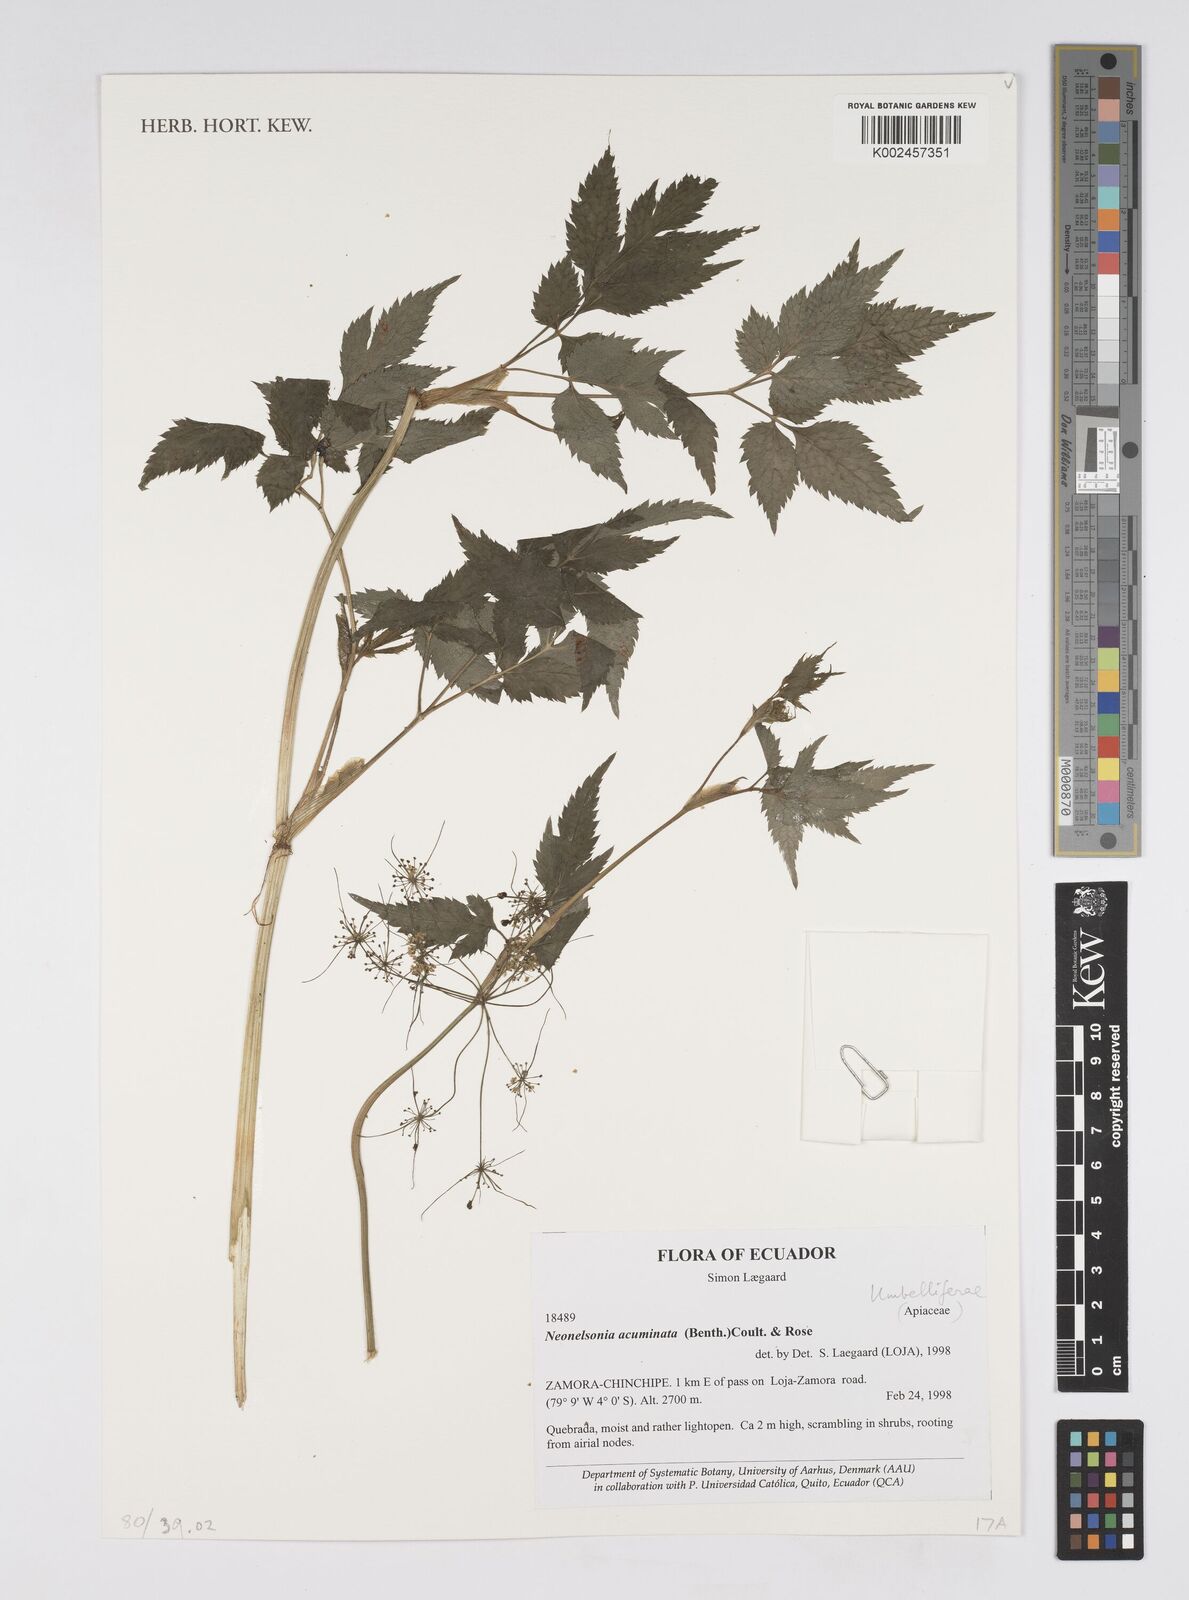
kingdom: Plantae
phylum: Tracheophyta
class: Magnoliopsida
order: Apiales
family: Apiaceae
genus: Neonelsonia
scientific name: Neonelsonia acuminata
